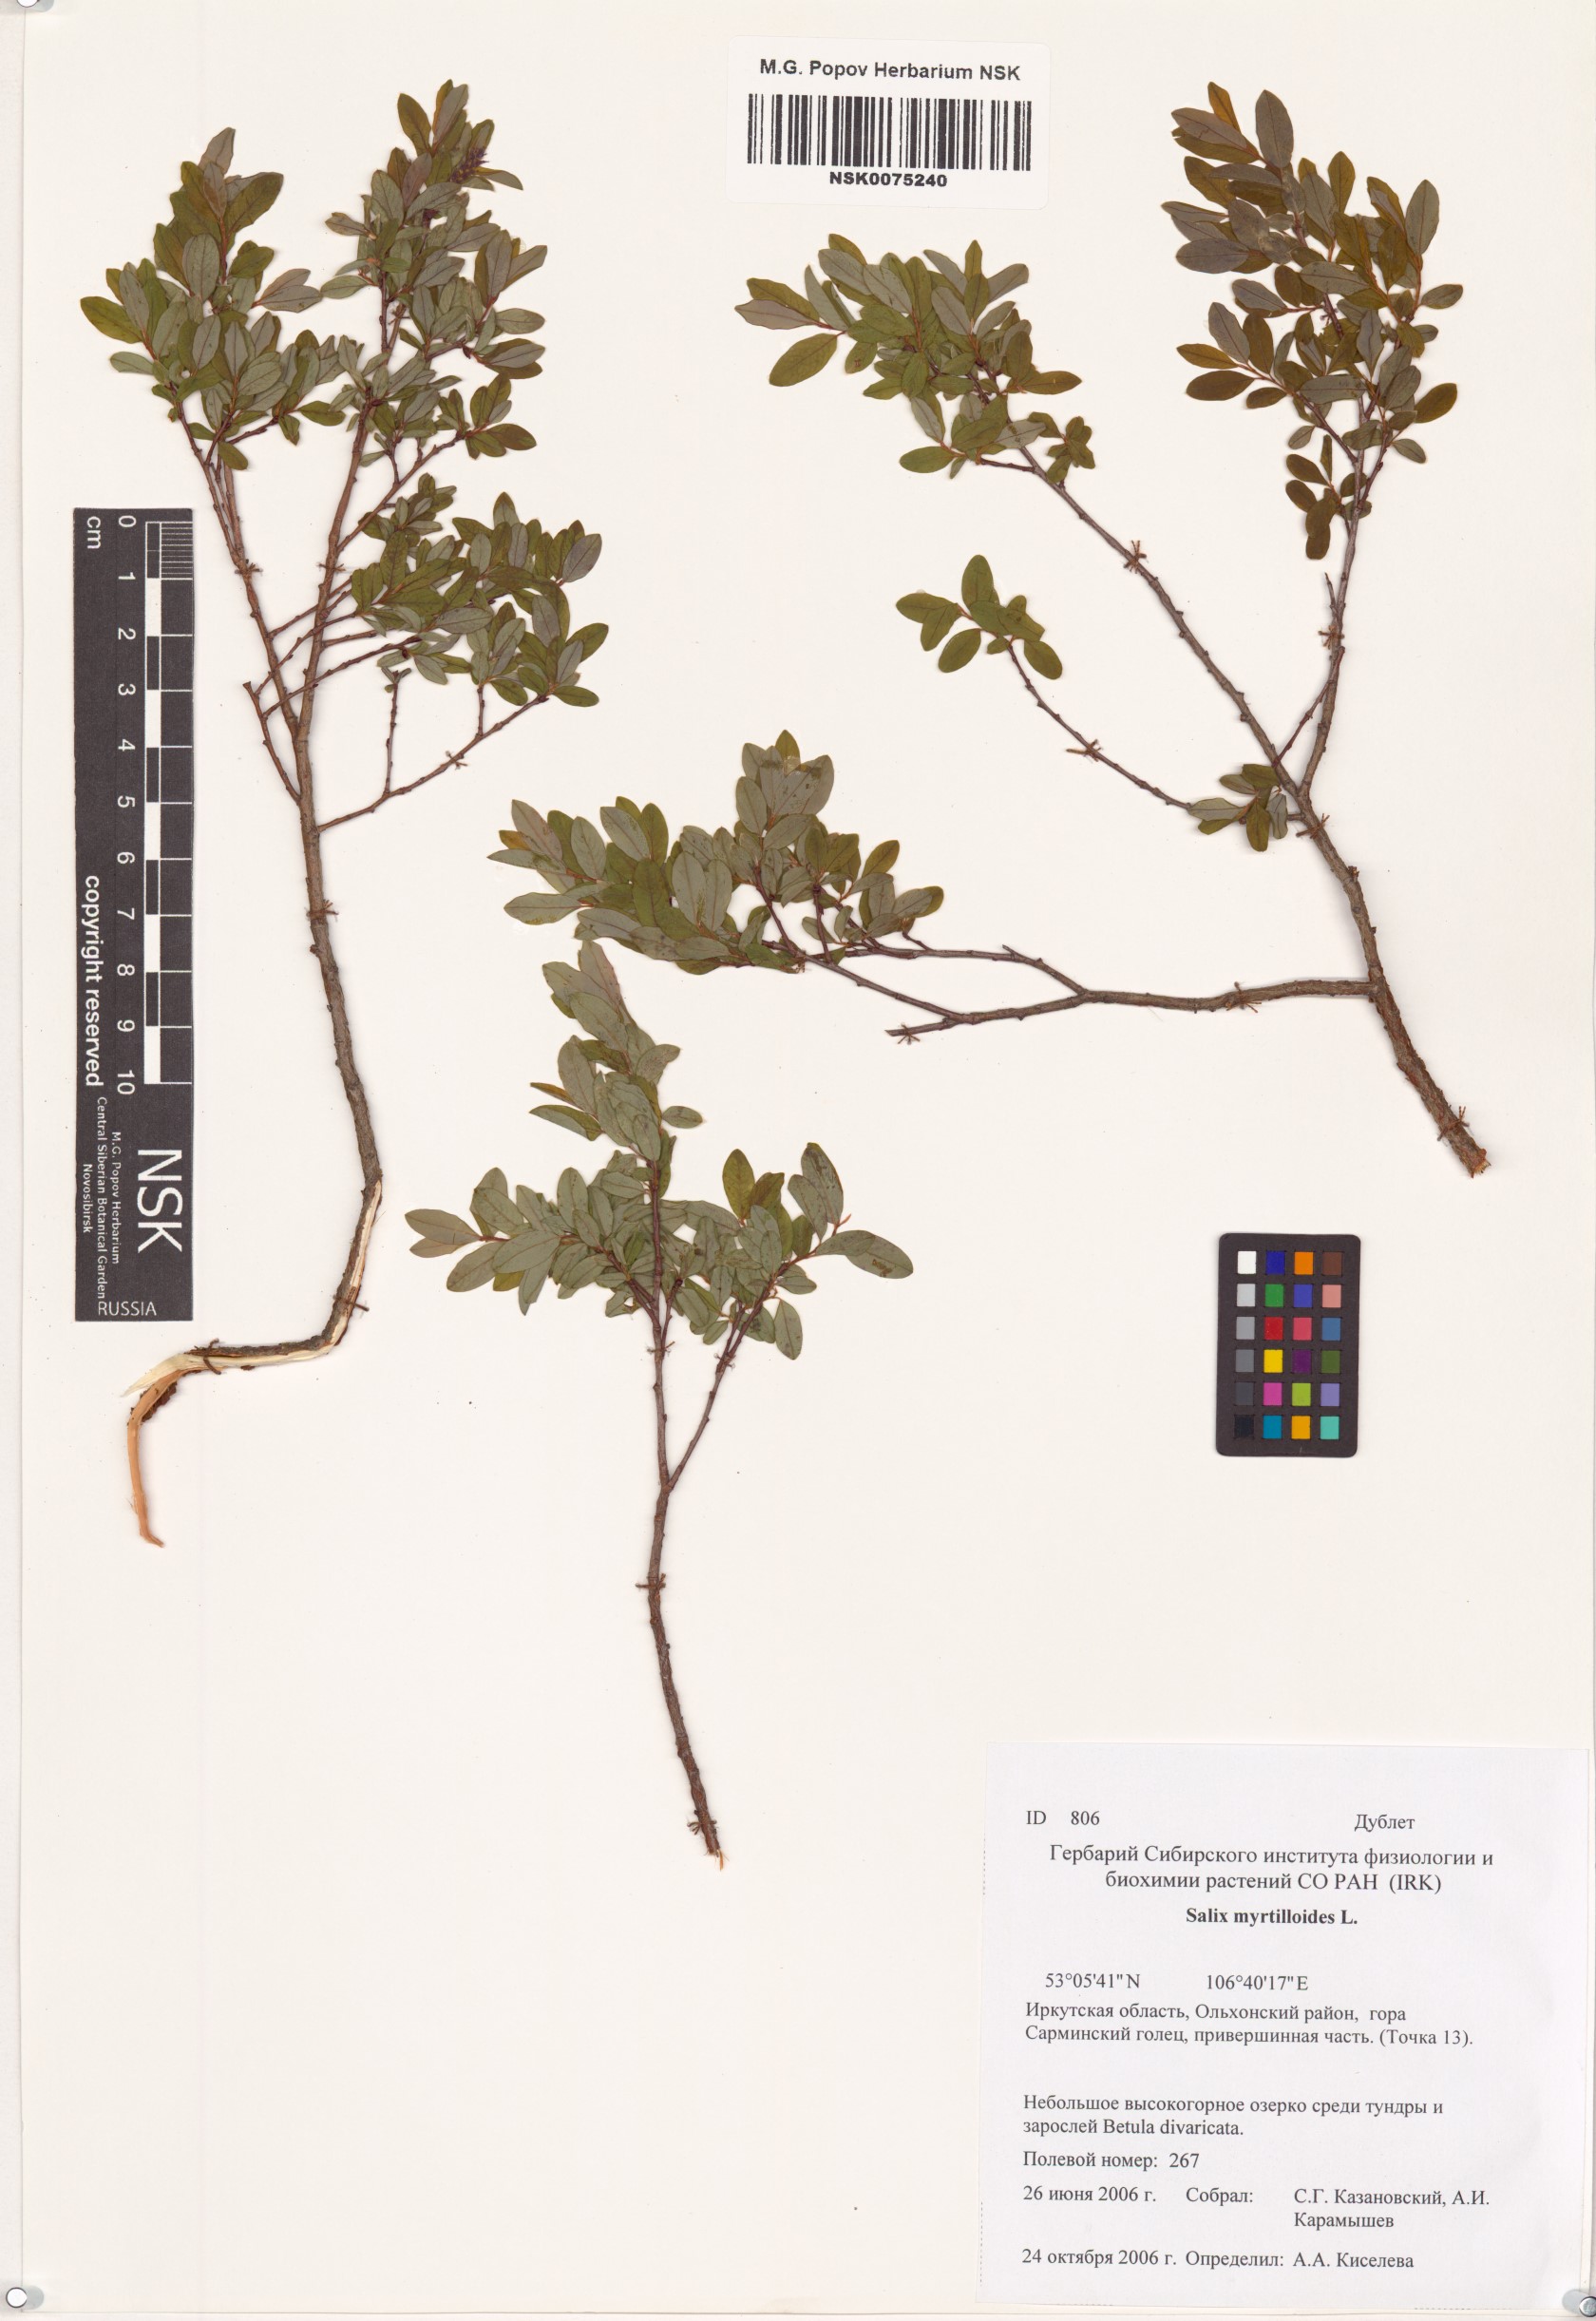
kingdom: Plantae
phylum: Tracheophyta
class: Magnoliopsida
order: Malpighiales
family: Salicaceae
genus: Salix
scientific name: Salix myrtilloides
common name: Myrtle-leaved willow
